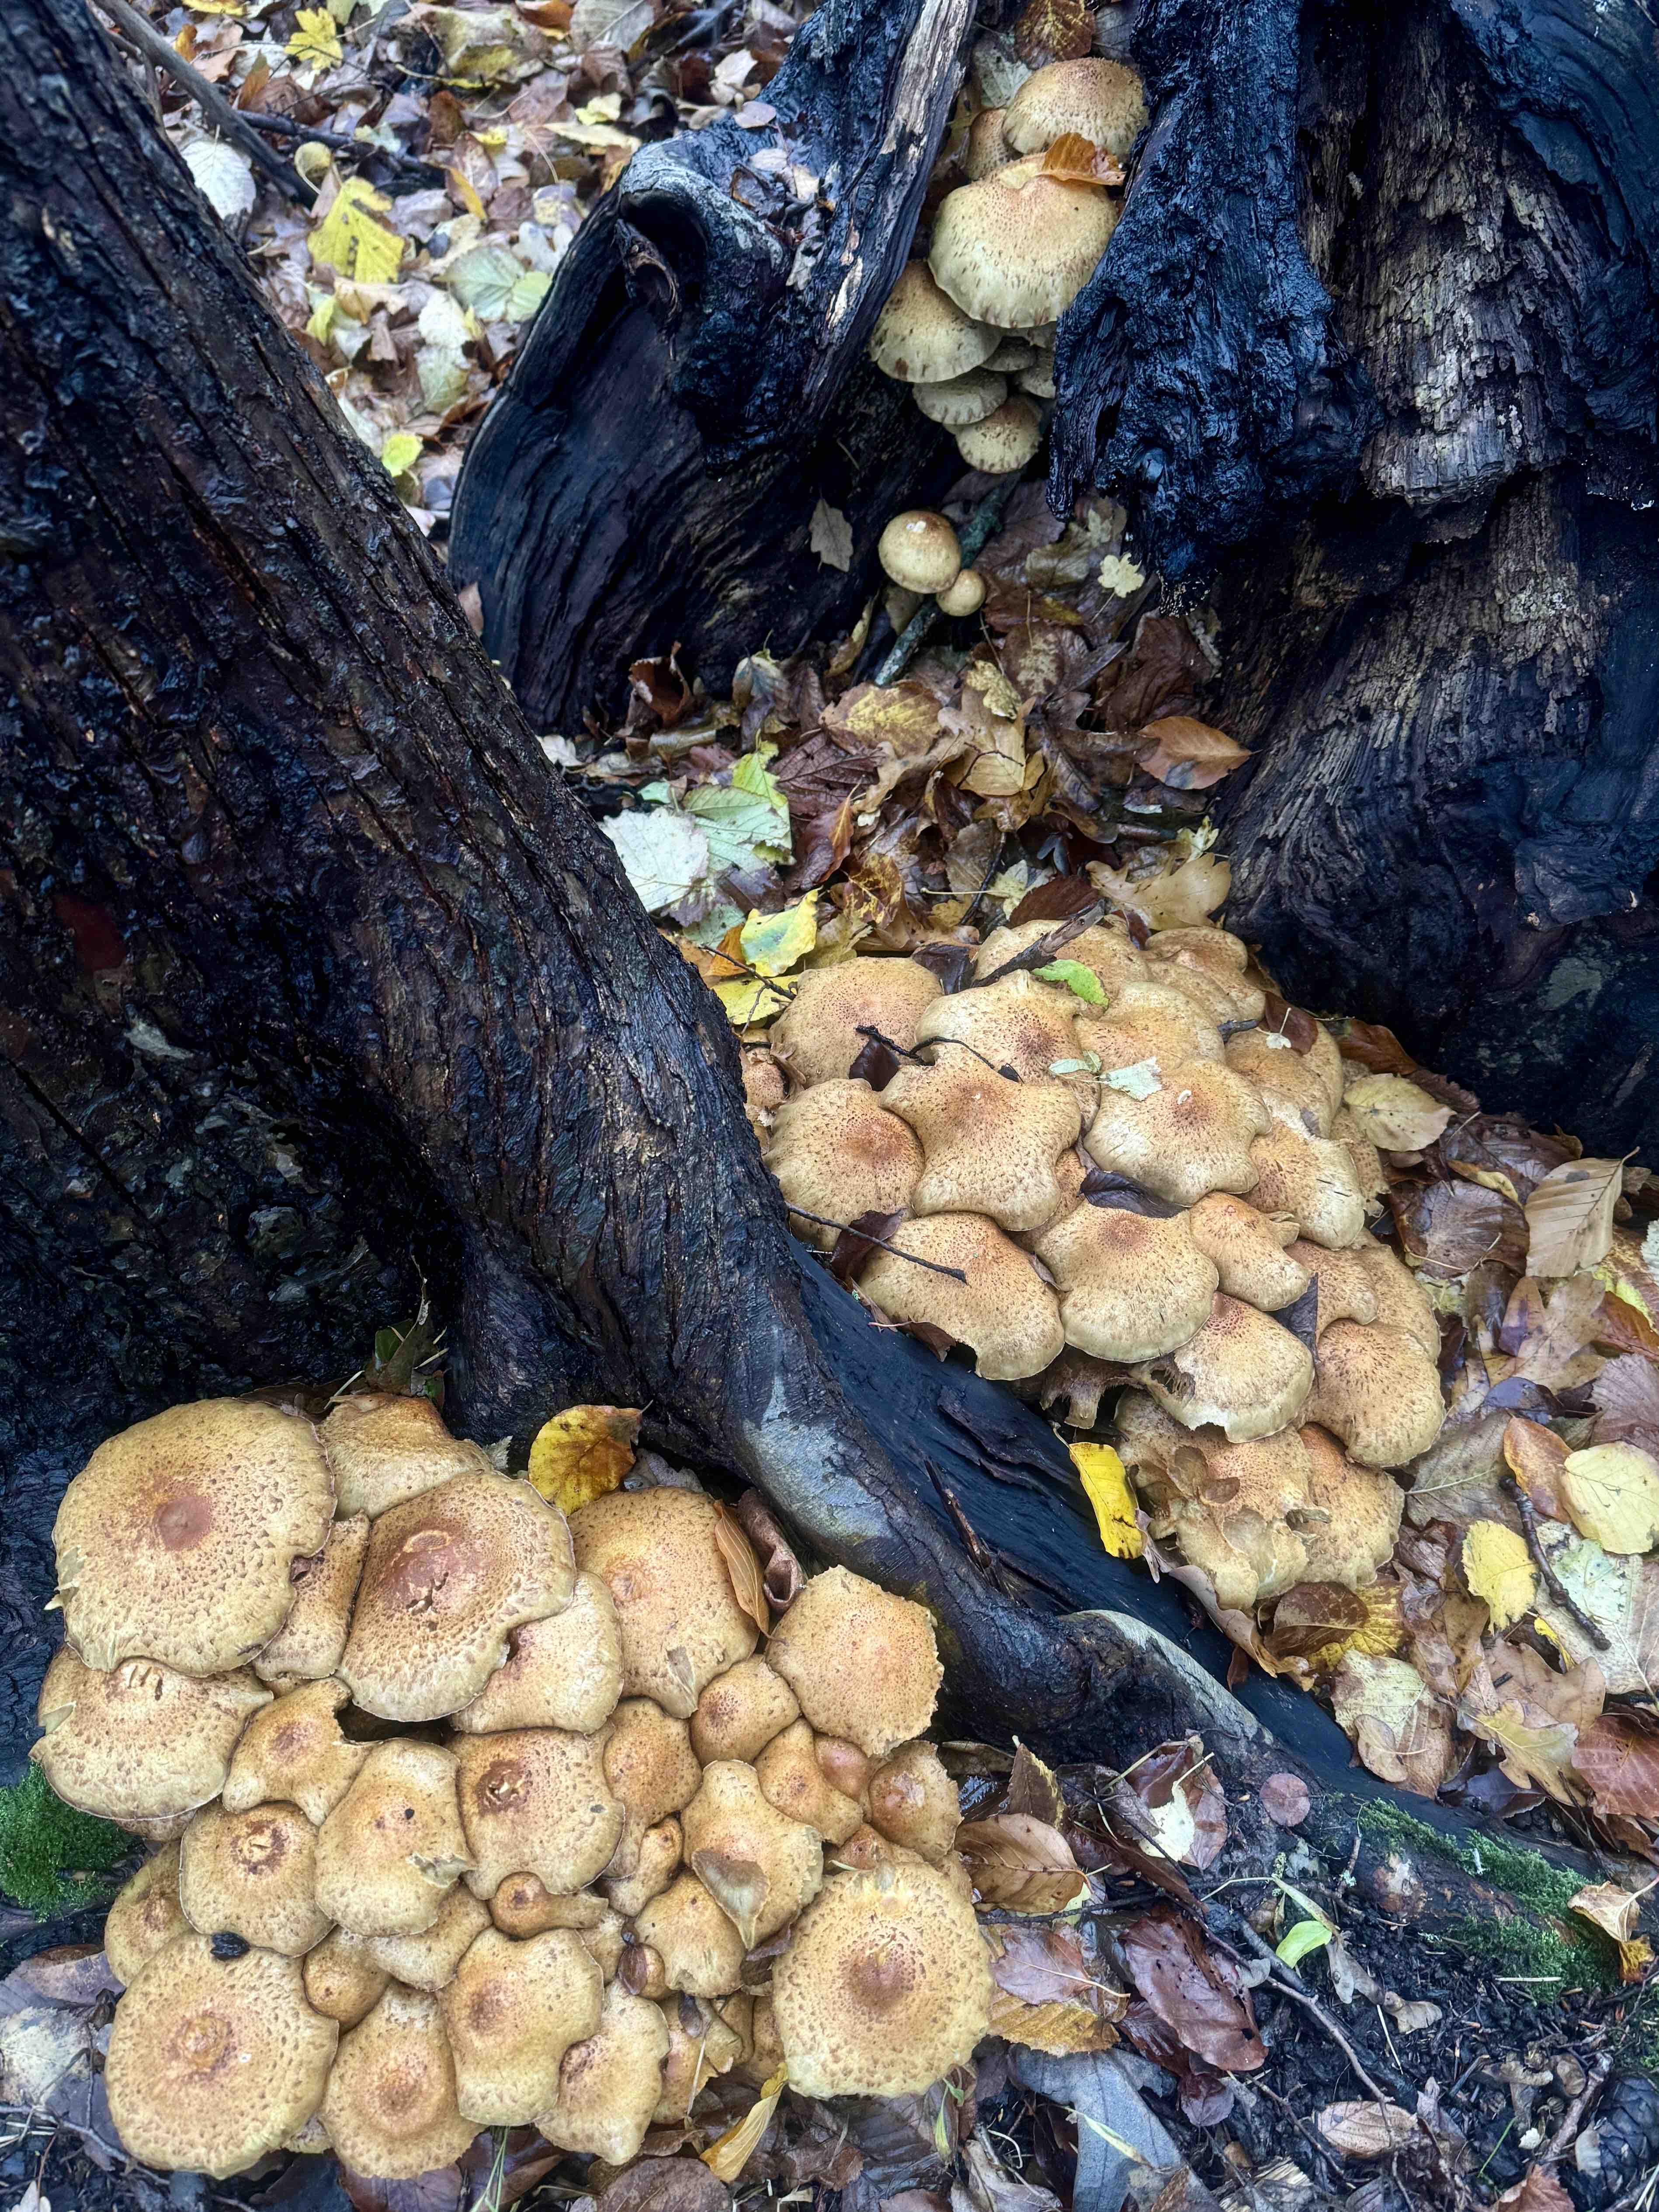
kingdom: Fungi
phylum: Basidiomycota
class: Agaricomycetes
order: Agaricales
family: Strophariaceae
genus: Pholiota
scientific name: Pholiota squarrosa
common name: krumskællet skælhat
